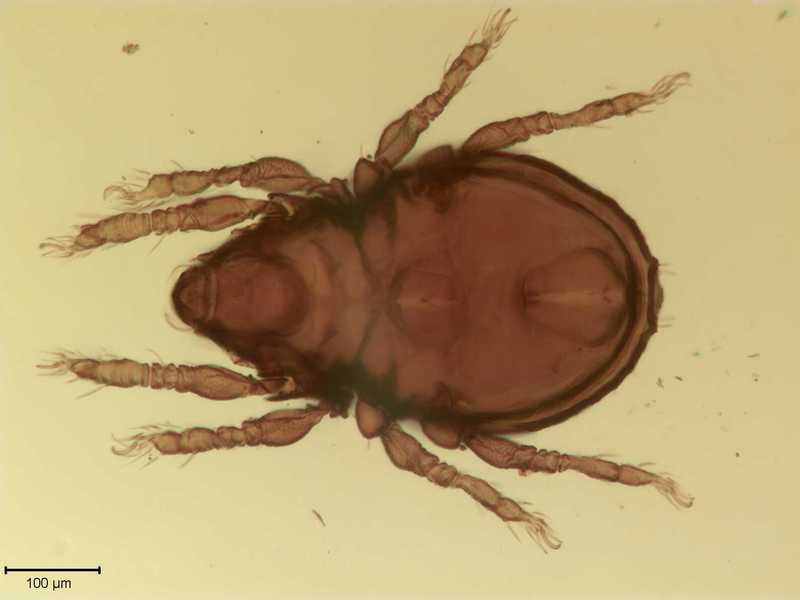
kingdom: Animalia
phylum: Arthropoda
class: Arachnida
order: Sarcoptiformes
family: Scutoverticidae
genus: Scutovertex
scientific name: Scutovertex minutus
